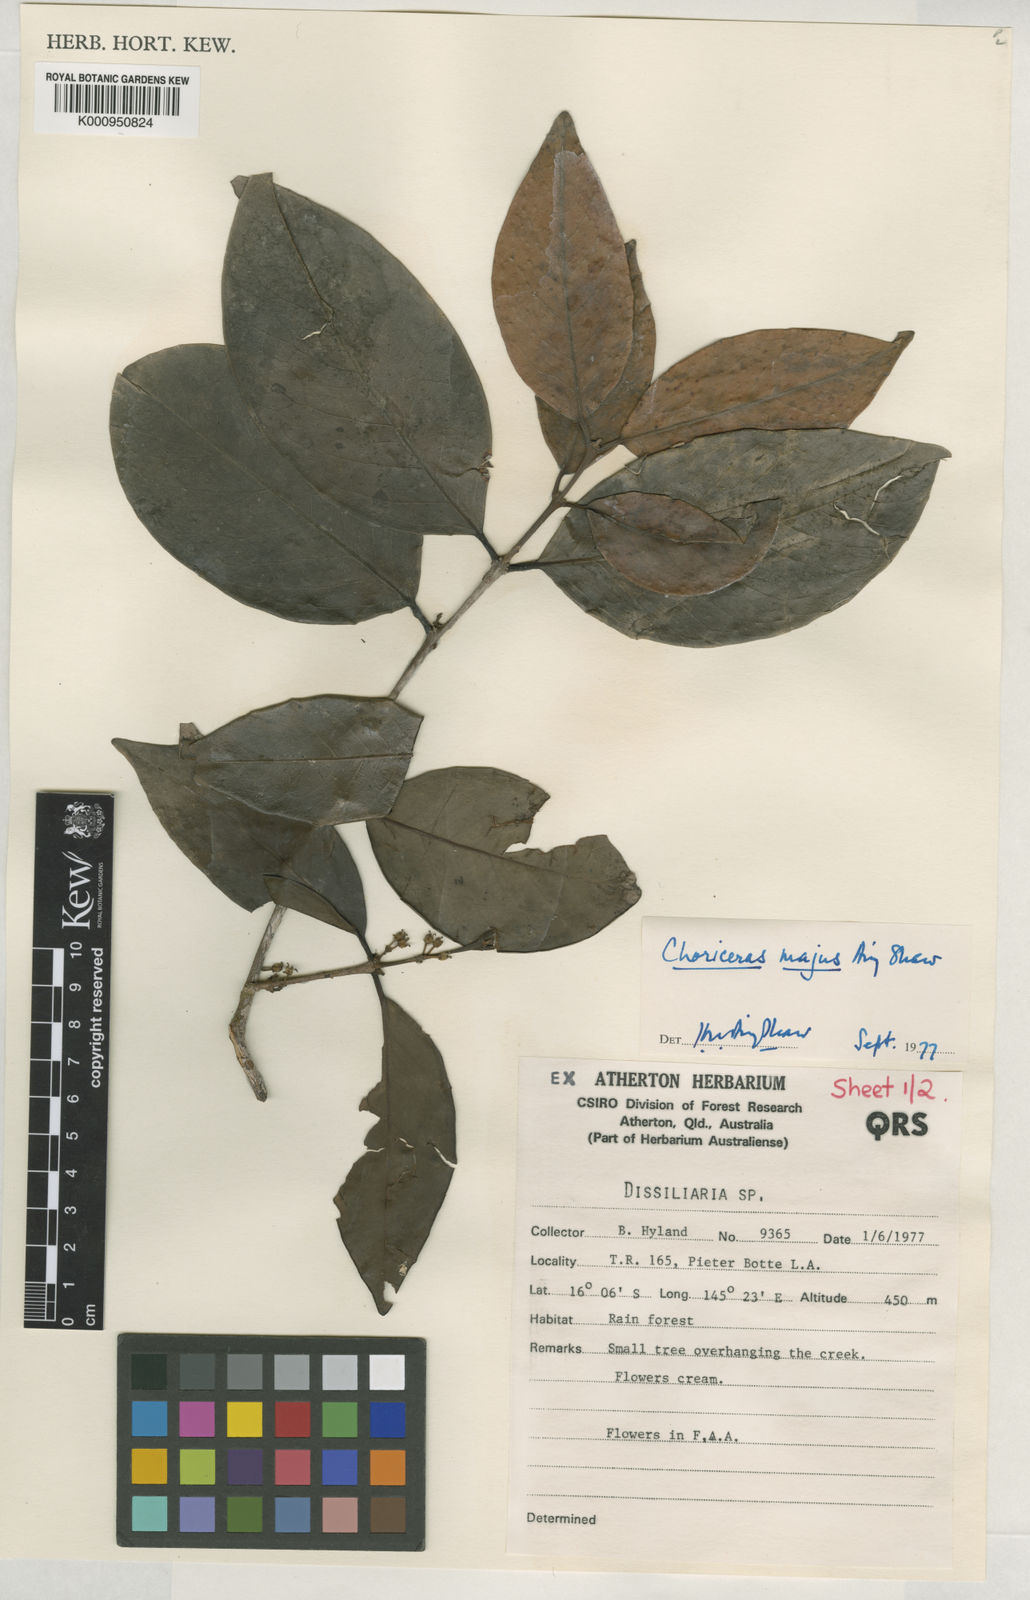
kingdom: Plantae
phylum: Tracheophyta
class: Magnoliopsida
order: Malpighiales
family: Picrodendraceae
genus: Choriceras
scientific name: Choriceras majus
